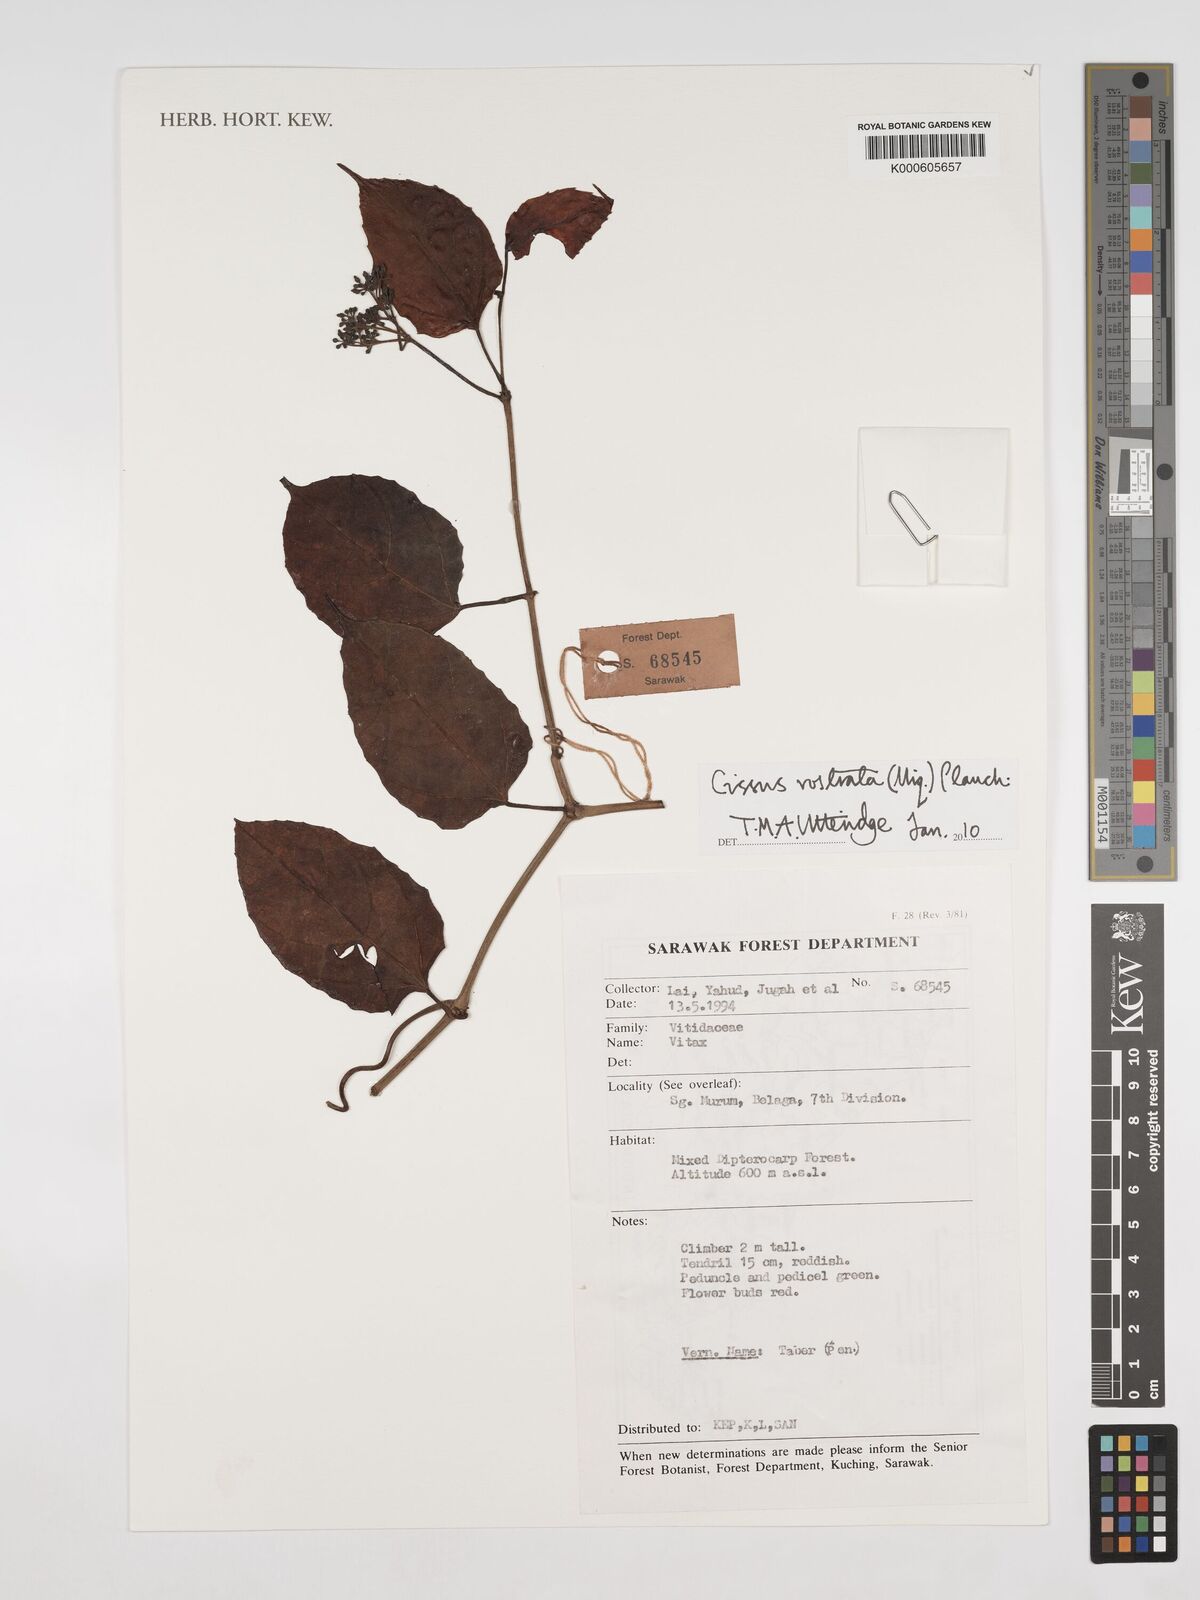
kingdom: Plantae
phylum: Tracheophyta
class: Magnoliopsida
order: Vitales
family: Vitaceae
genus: Cissus
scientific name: Cissus rostrata
